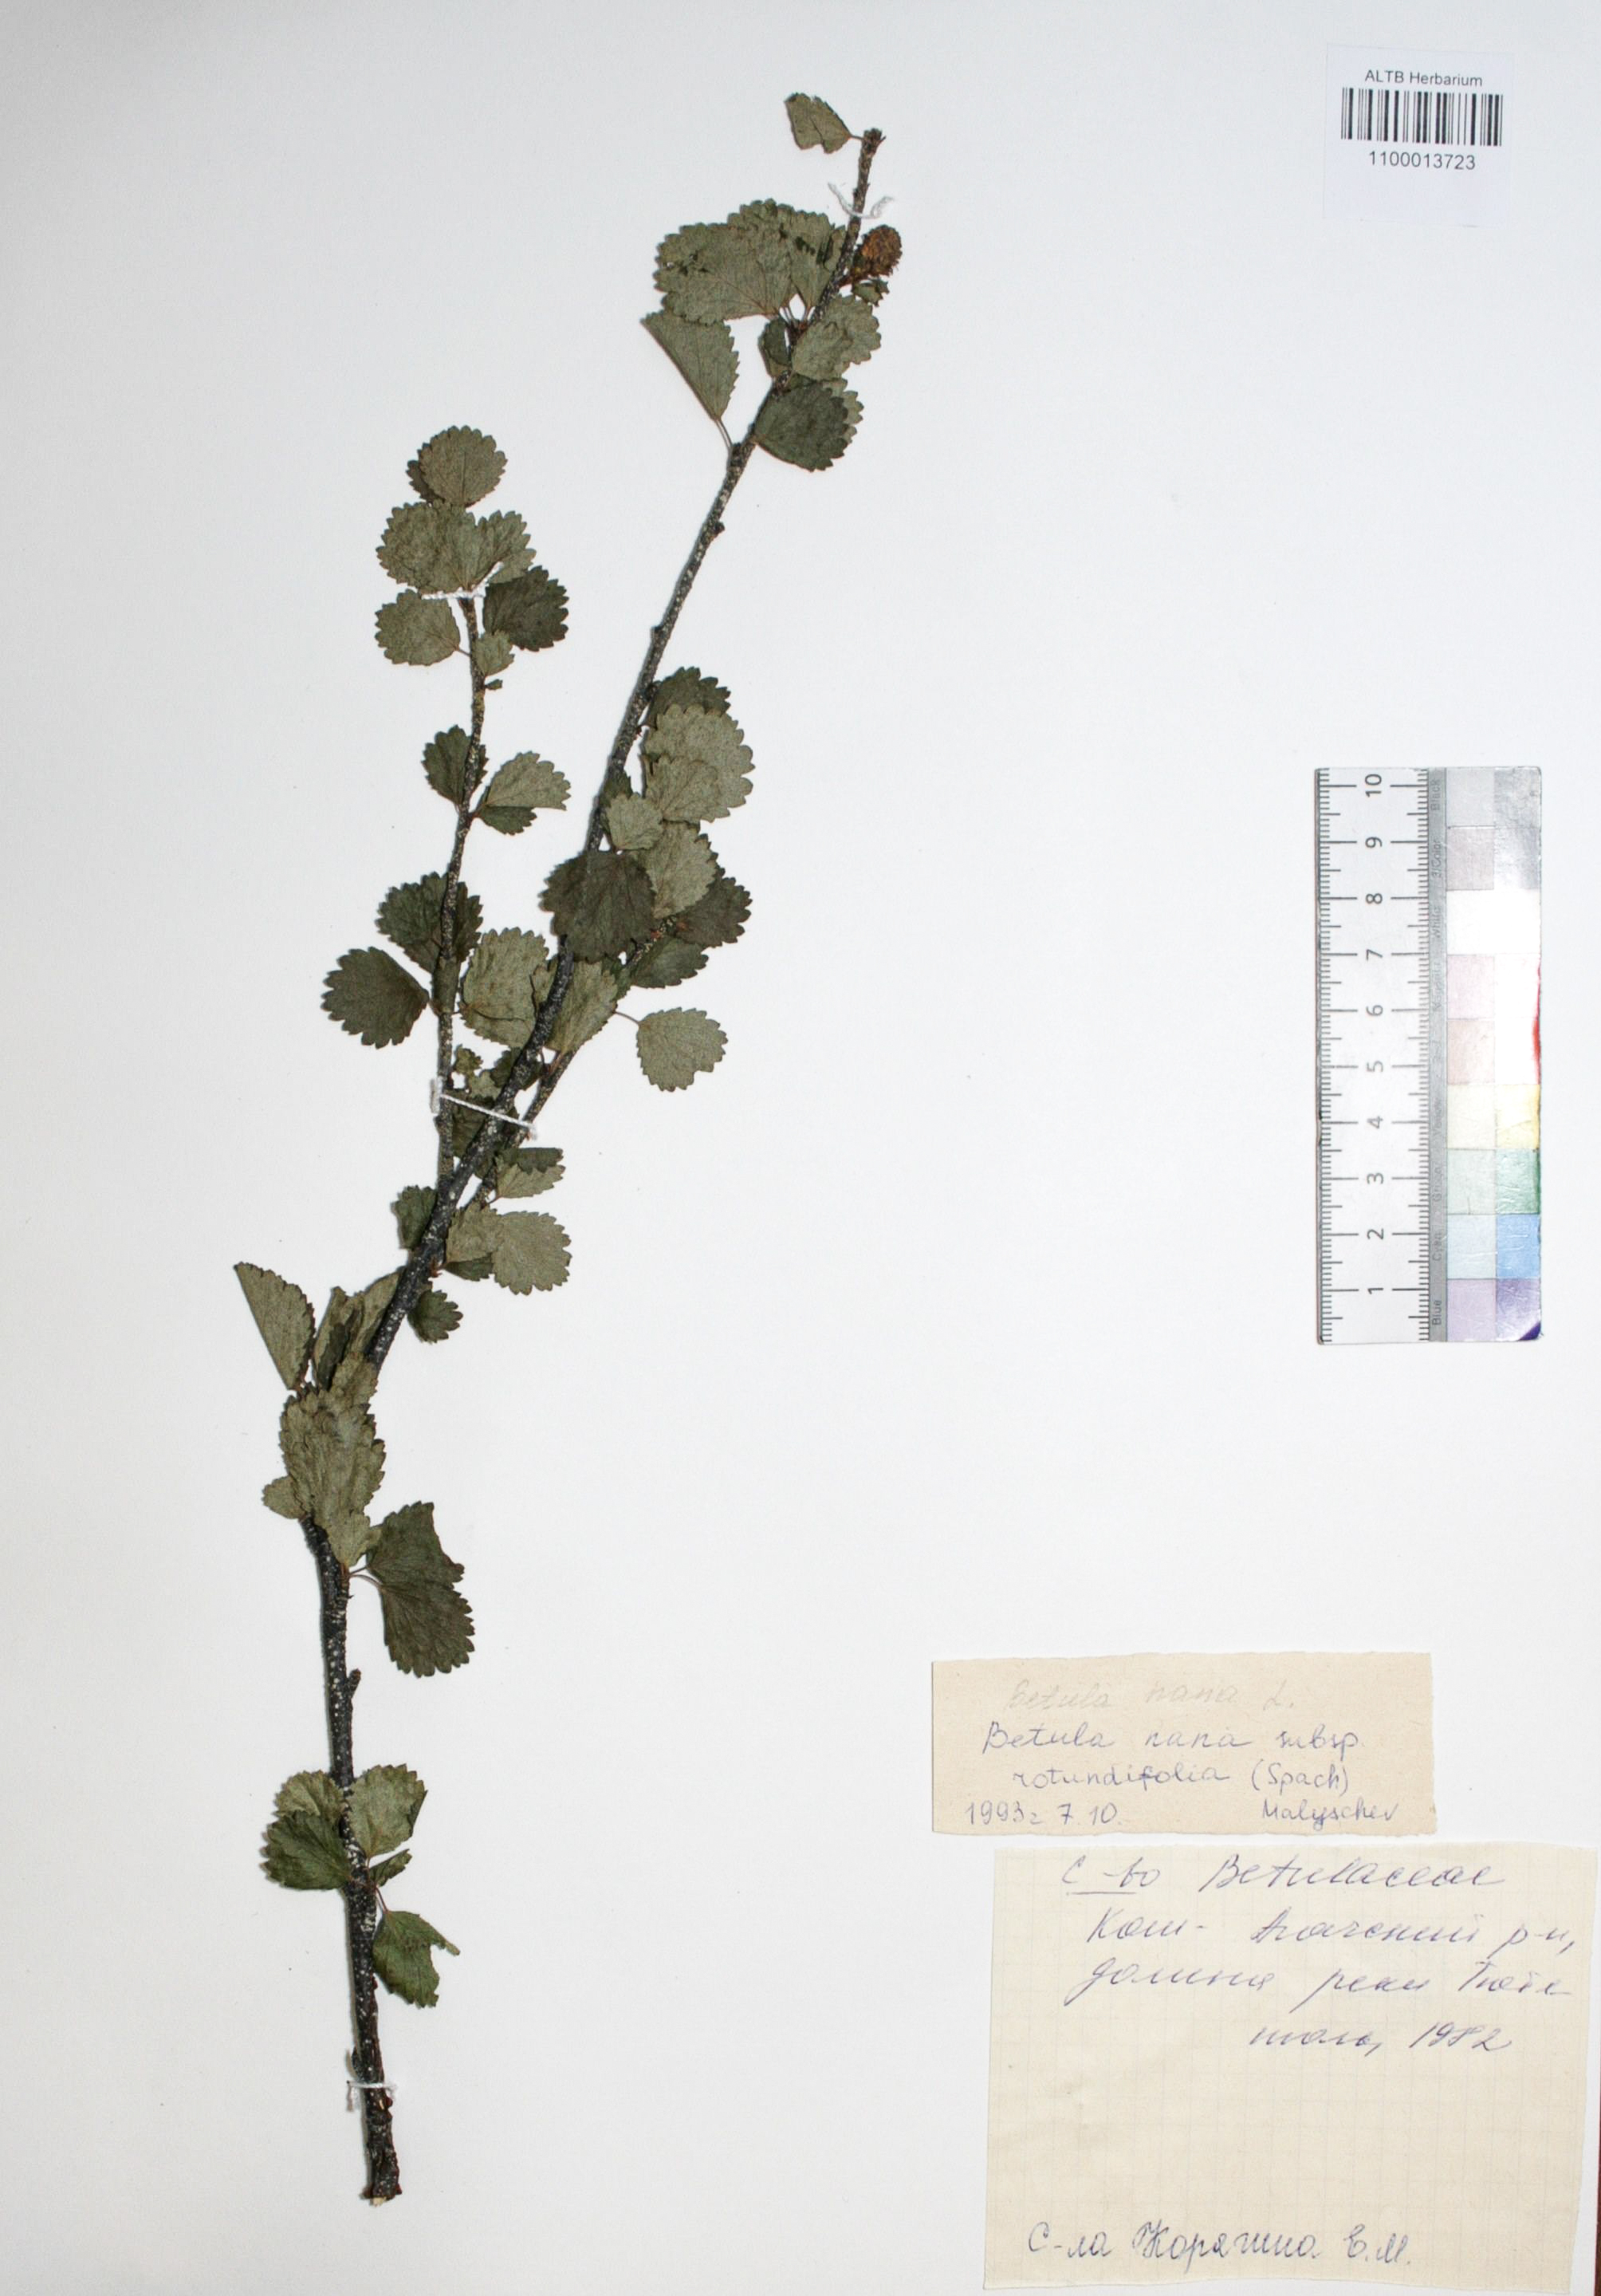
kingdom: Plantae
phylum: Tracheophyta
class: Magnoliopsida
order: Fagales
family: Betulaceae
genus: Betula
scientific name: Betula glandulosa
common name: Dwarf birch
